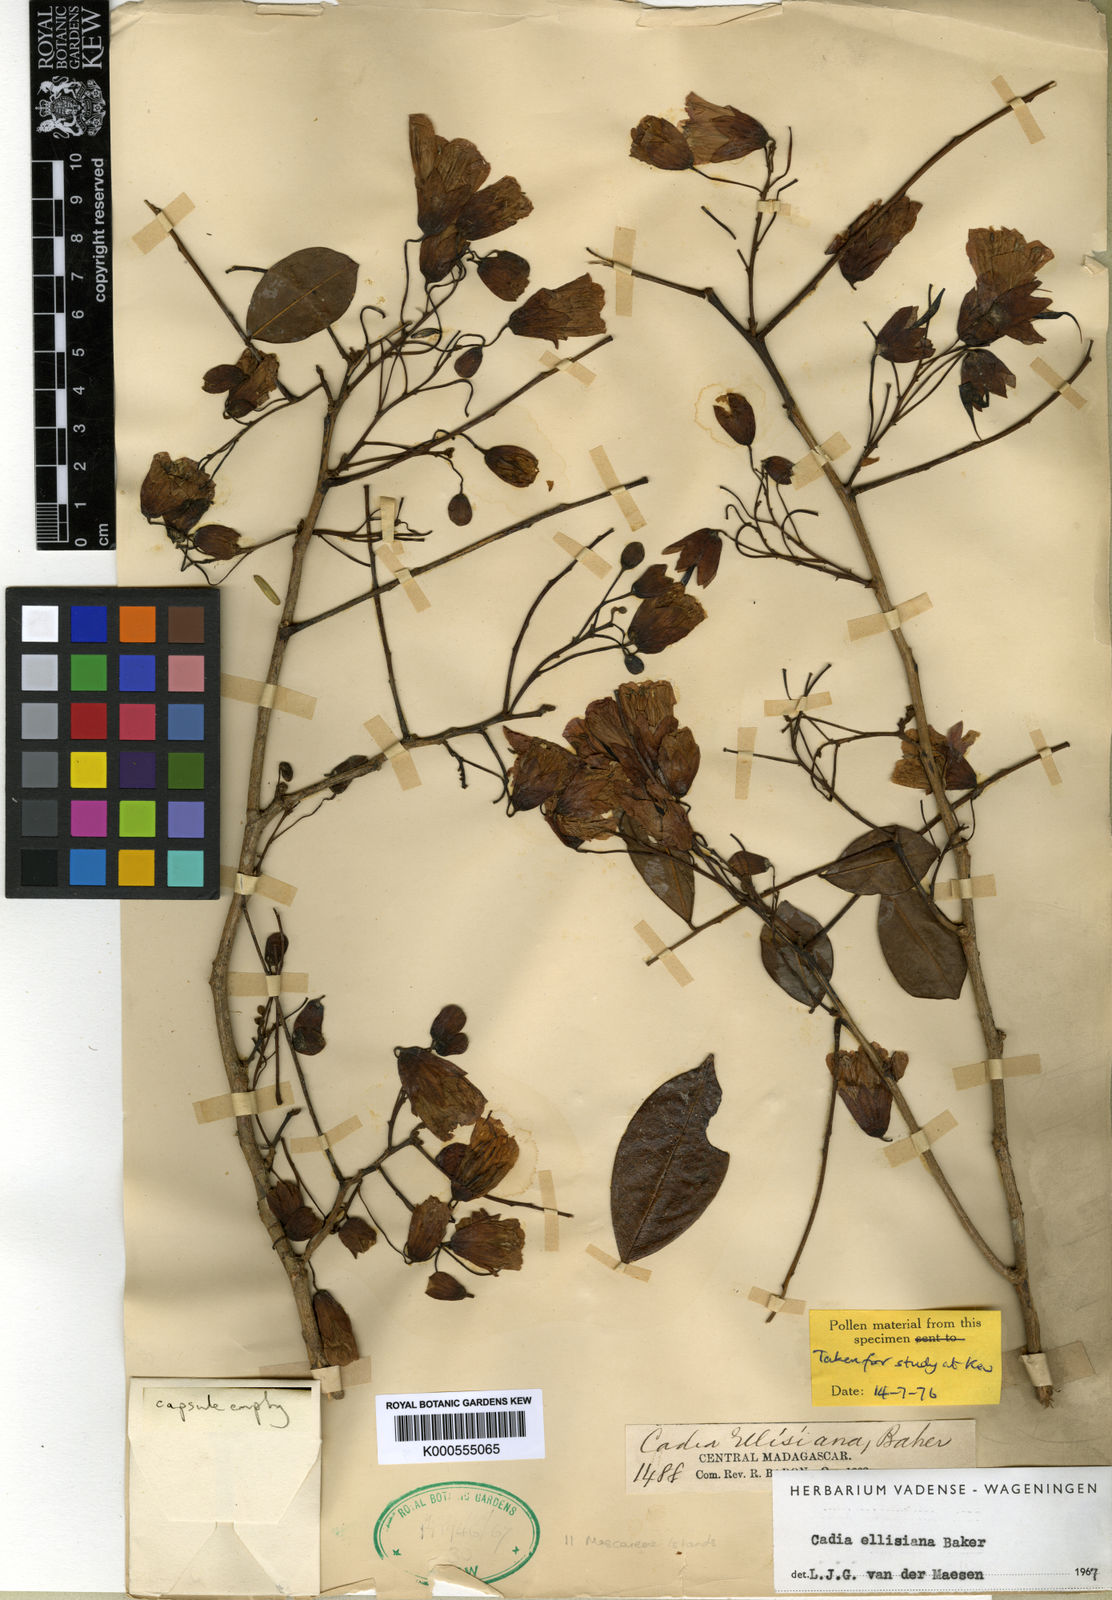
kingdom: Plantae
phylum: Tracheophyta
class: Magnoliopsida
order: Fabales
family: Fabaceae
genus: Cadia
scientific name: Cadia ellisiana
